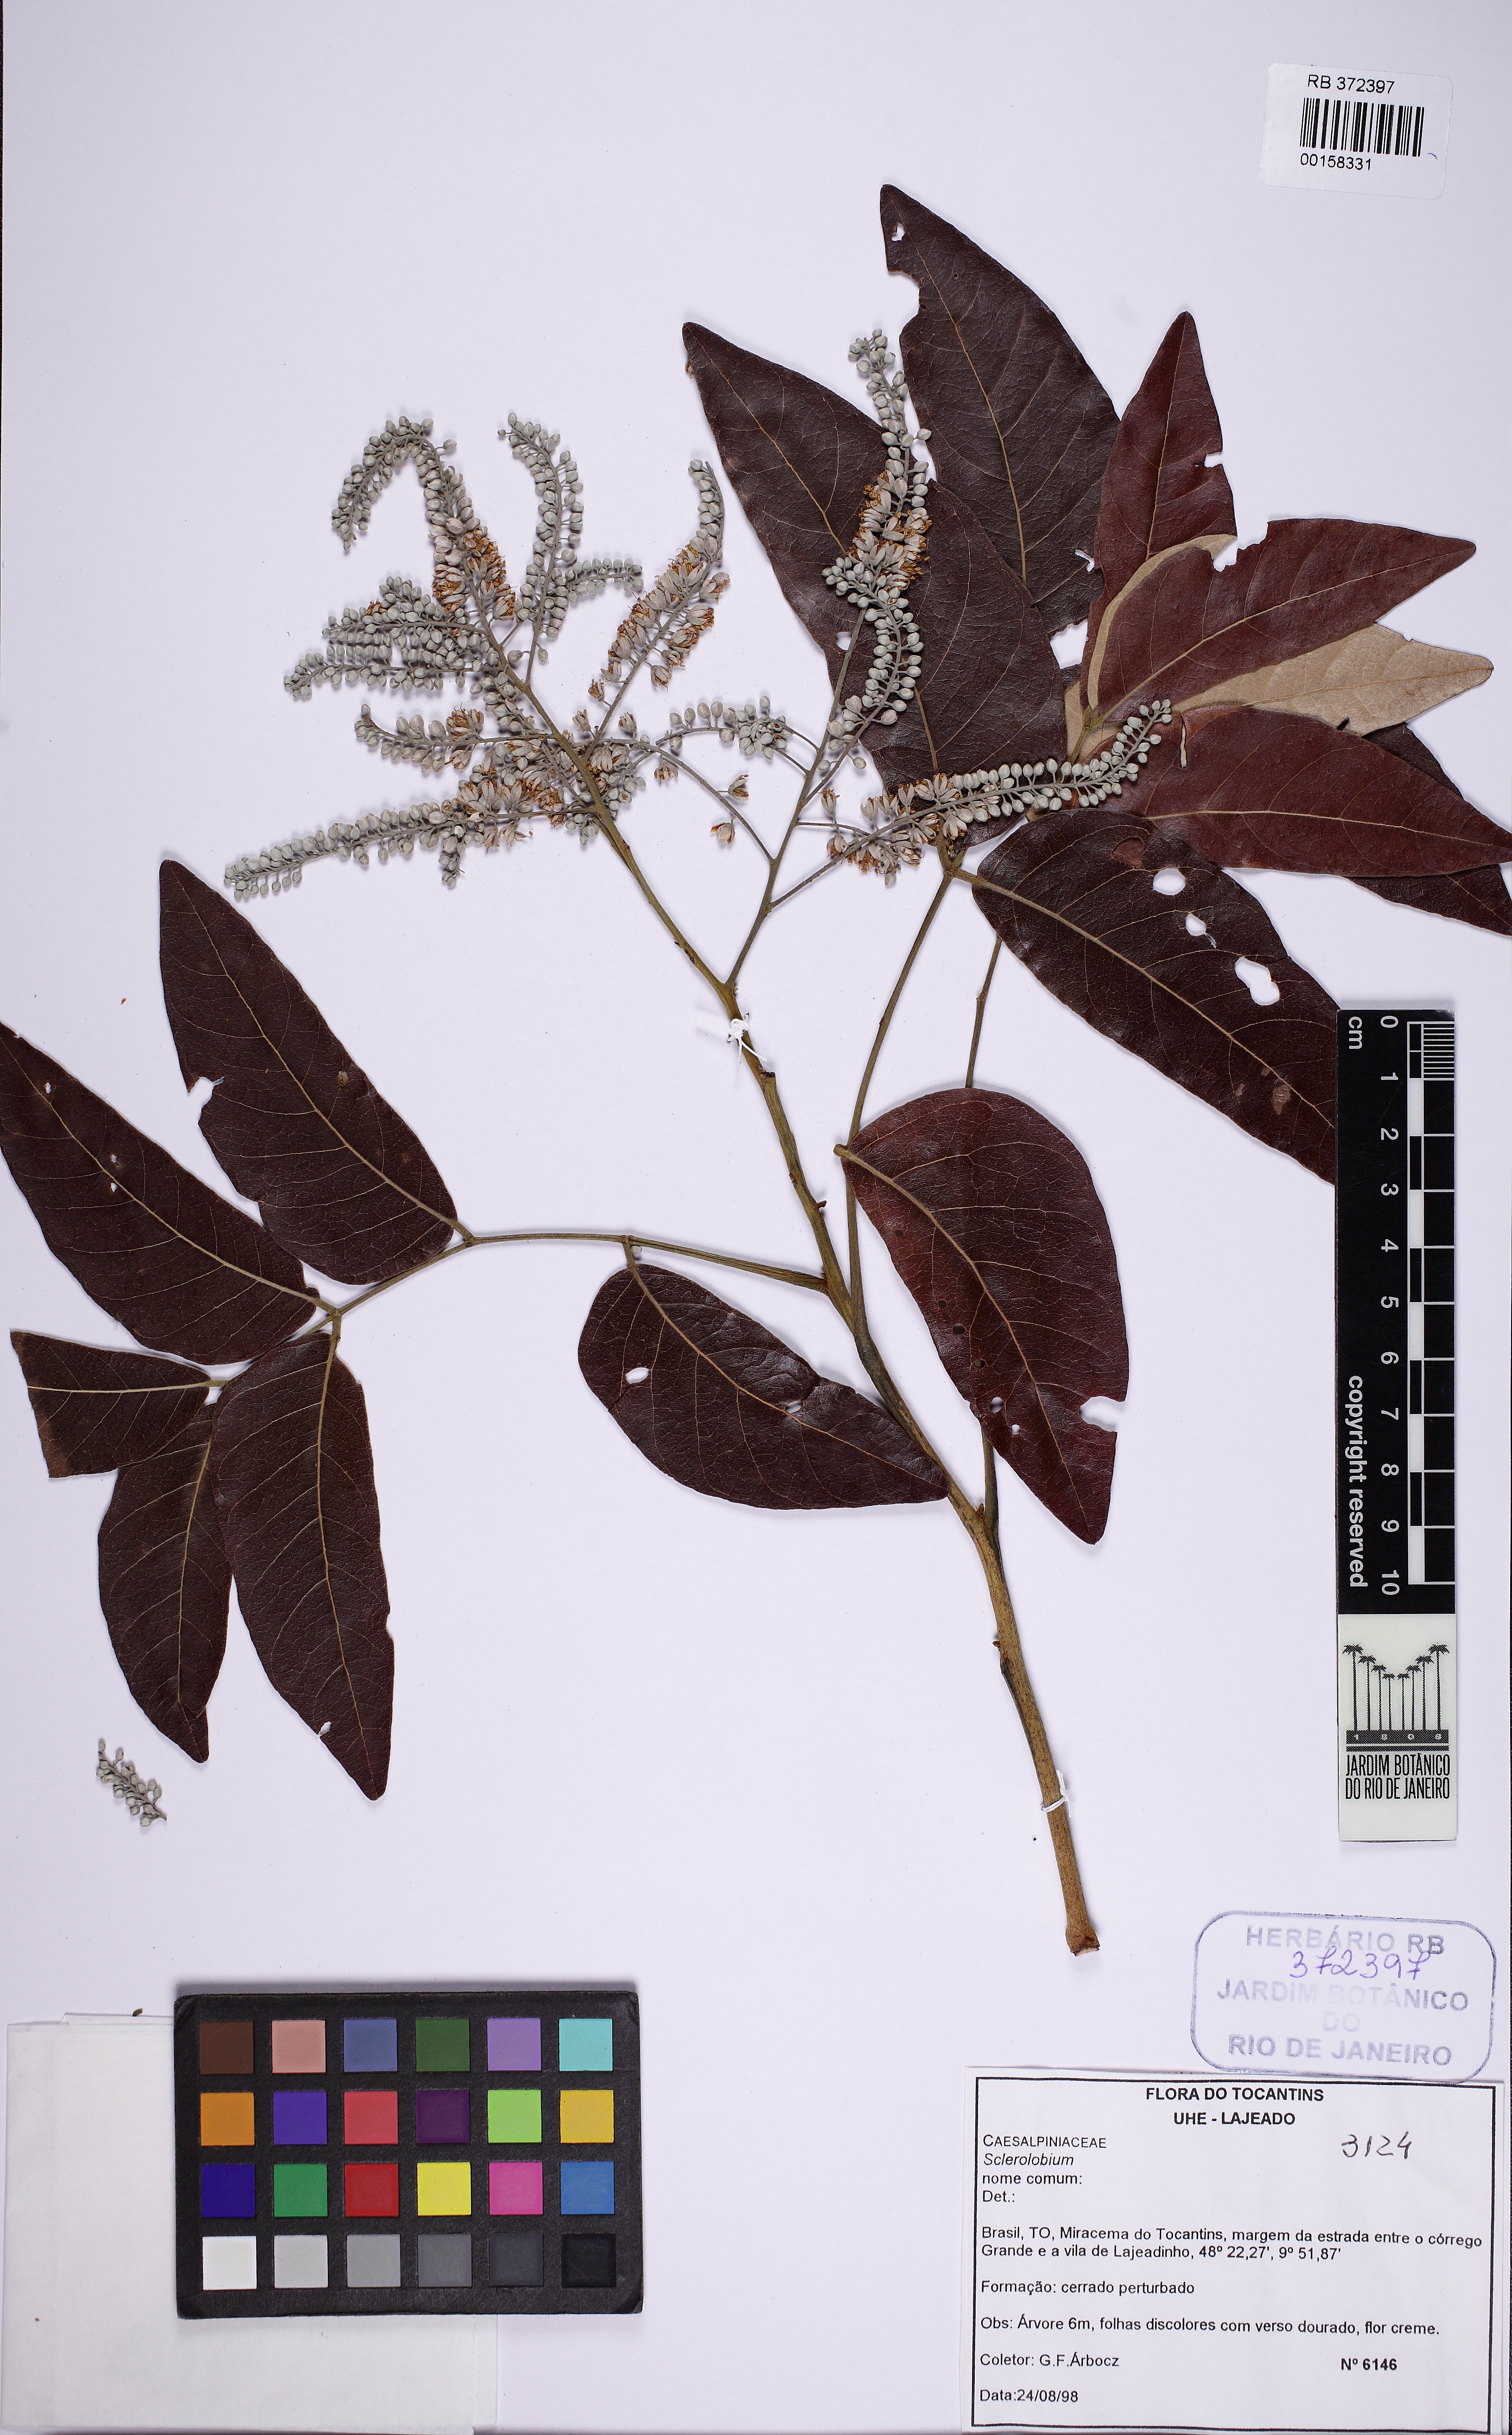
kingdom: Plantae
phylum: Tracheophyta
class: Magnoliopsida
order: Fabales
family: Fabaceae
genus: Tachigali
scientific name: Tachigali
